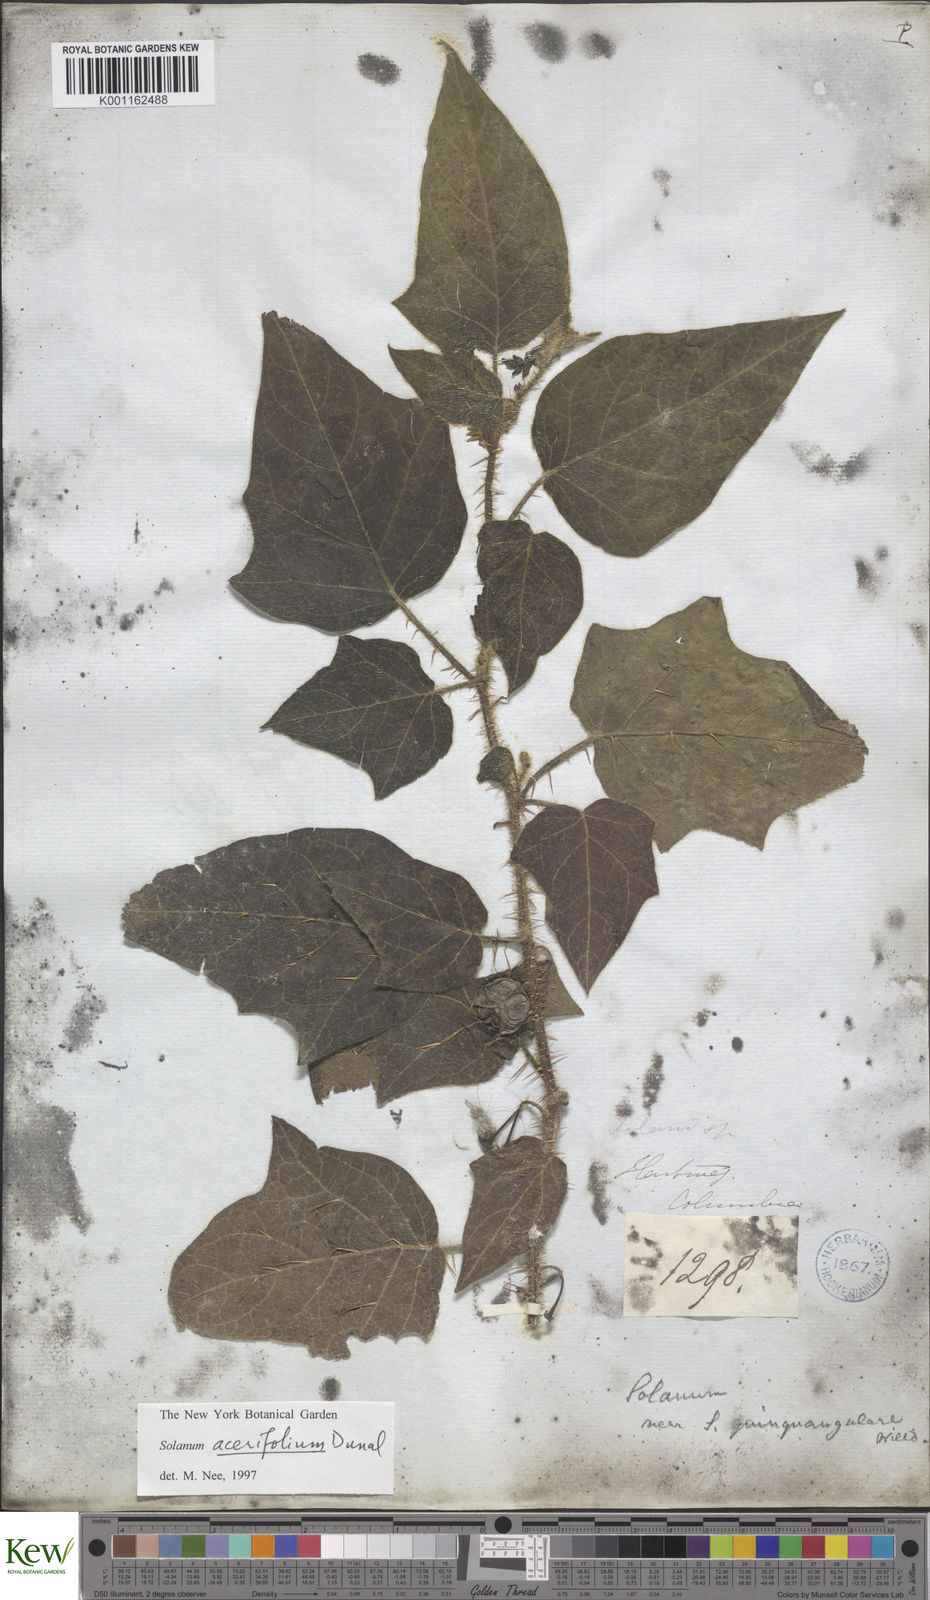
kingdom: Plantae
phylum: Tracheophyta
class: Magnoliopsida
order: Solanales
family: Solanaceae
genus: Solanum
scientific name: Solanum acerifolium
